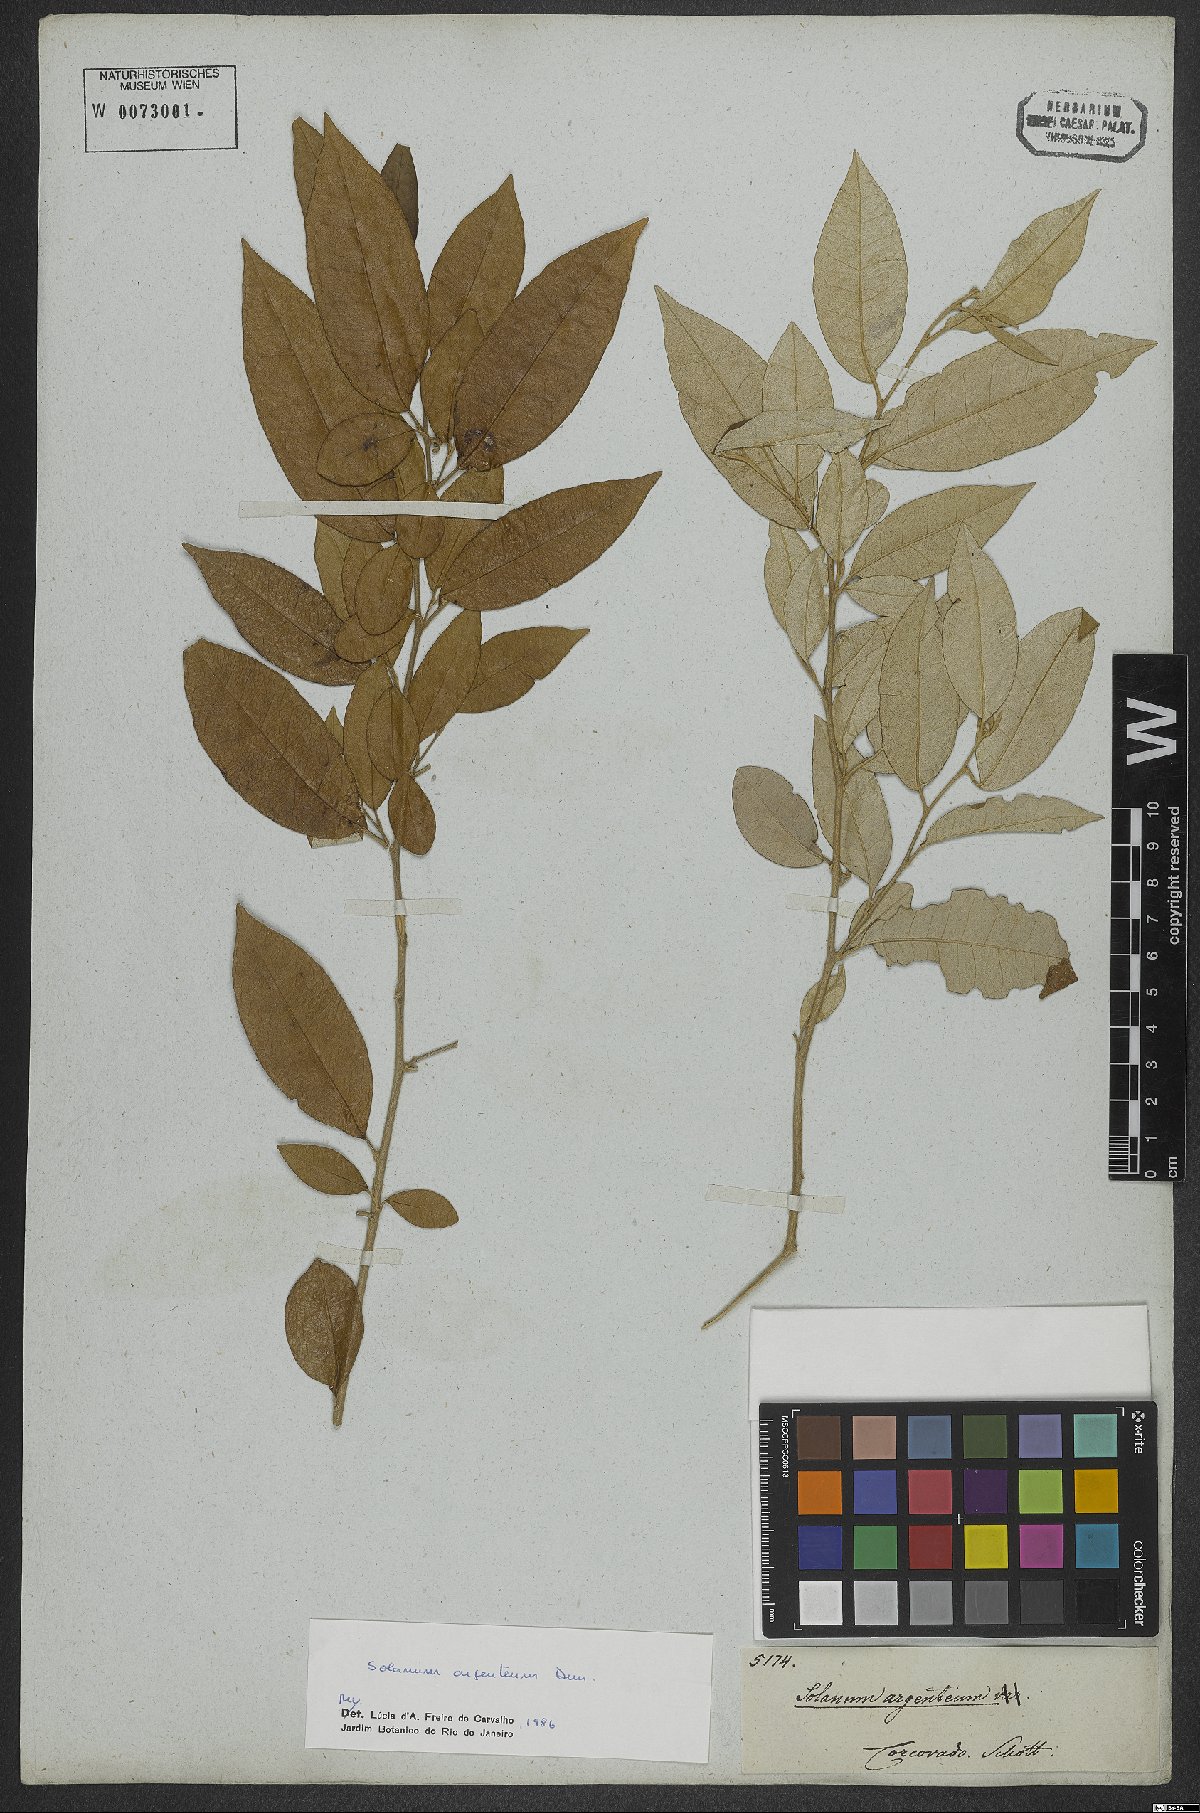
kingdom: Plantae
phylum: Tracheophyta
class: Magnoliopsida
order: Solanales
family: Solanaceae
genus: Solanum
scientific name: Solanum swartzianum
